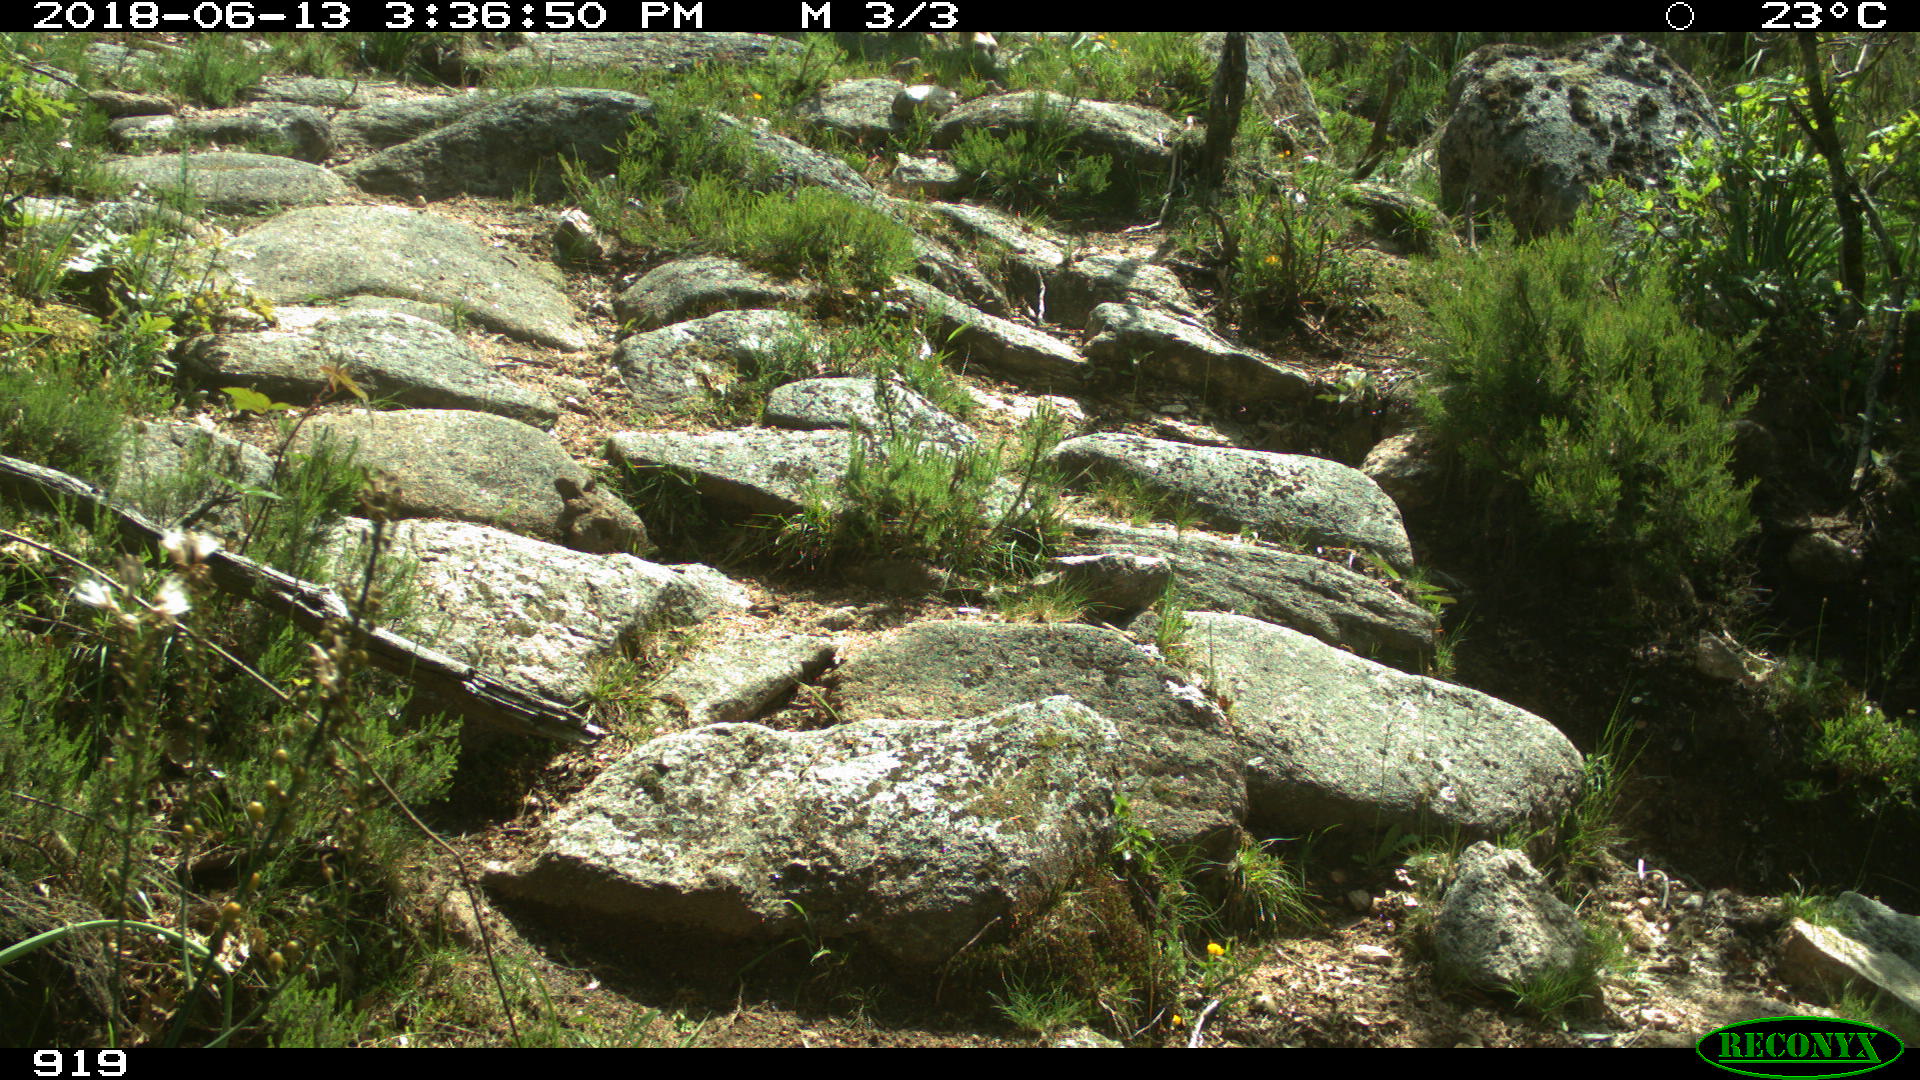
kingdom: Animalia
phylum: Chordata
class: Mammalia
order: Artiodactyla
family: Bovidae
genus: Bos
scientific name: Bos taurus
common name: Domesticated cattle
